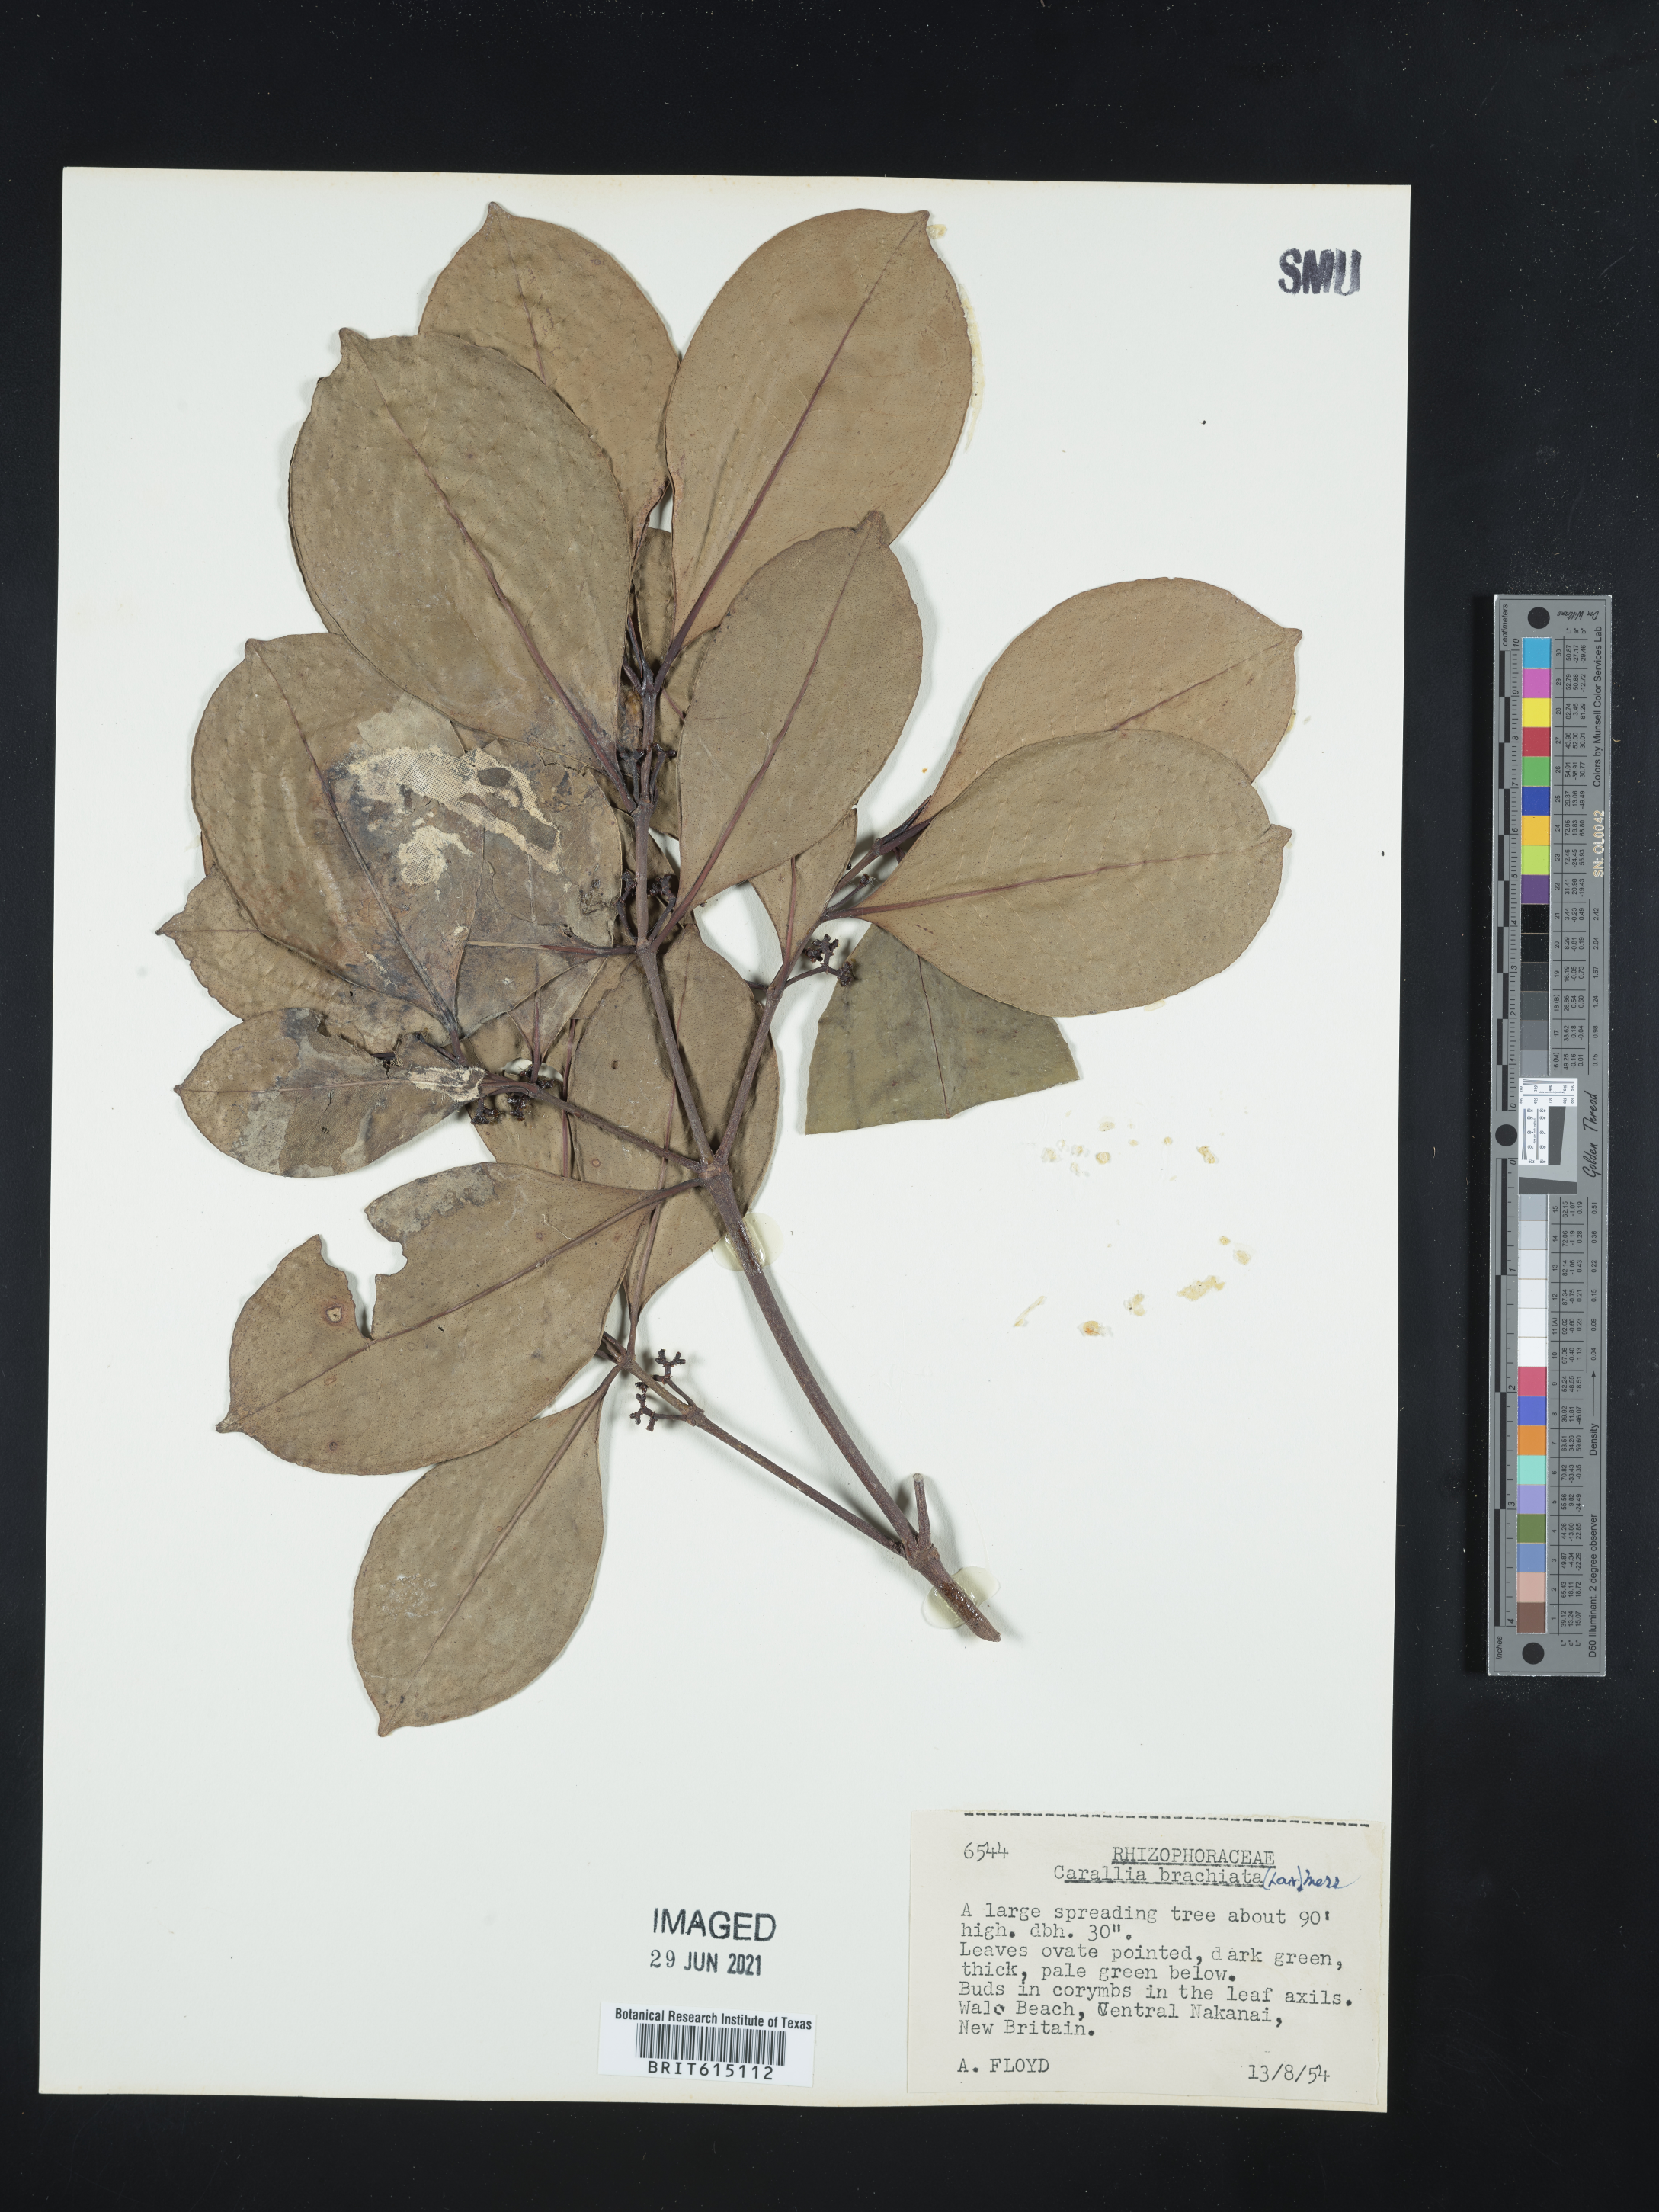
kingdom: Plantae
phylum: Tracheophyta
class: Magnoliopsida
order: Malpighiales
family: Rhizophoraceae
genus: Carallia
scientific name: Carallia brachiata
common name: Carallawood
